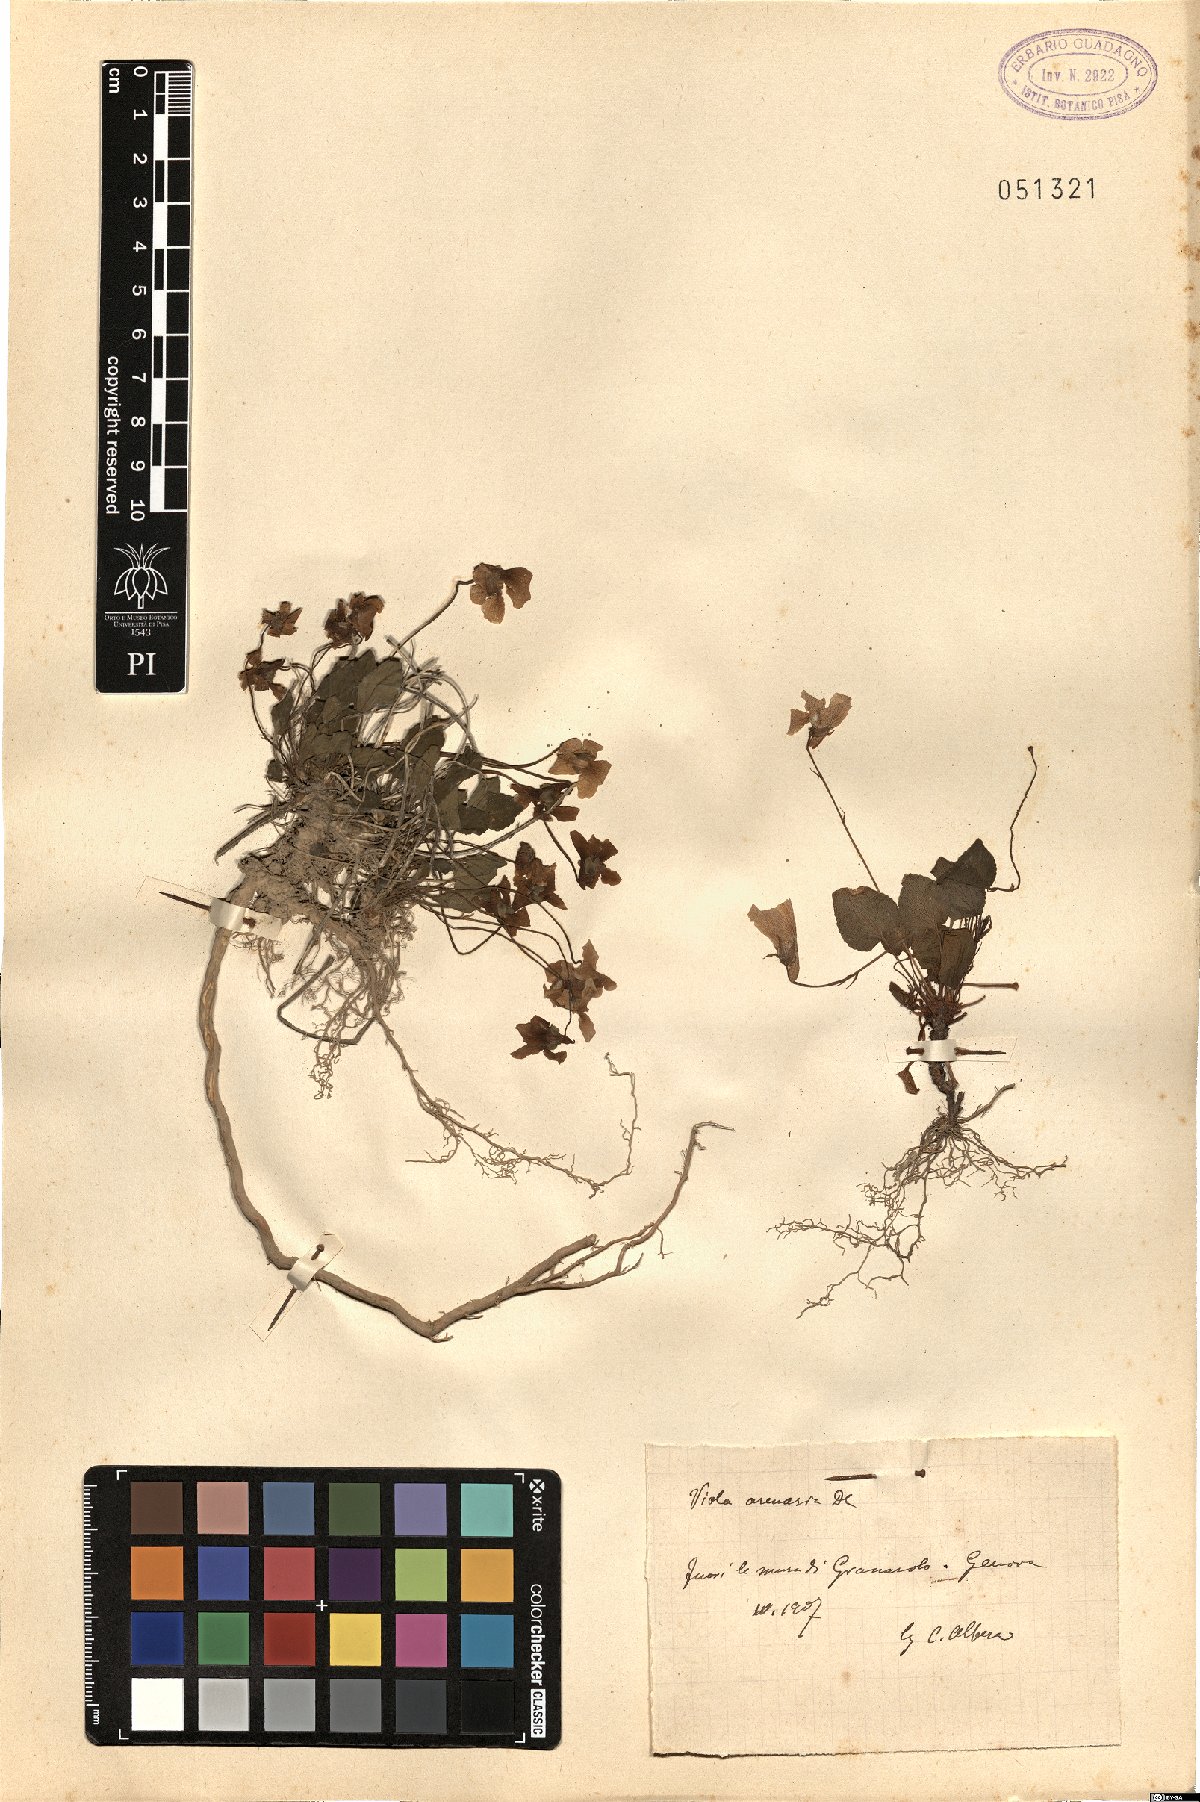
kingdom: Plantae
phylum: Tracheophyta
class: Magnoliopsida
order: Malpighiales
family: Violaceae
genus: Viola
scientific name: Viola rupestris
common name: Teesdale violet
